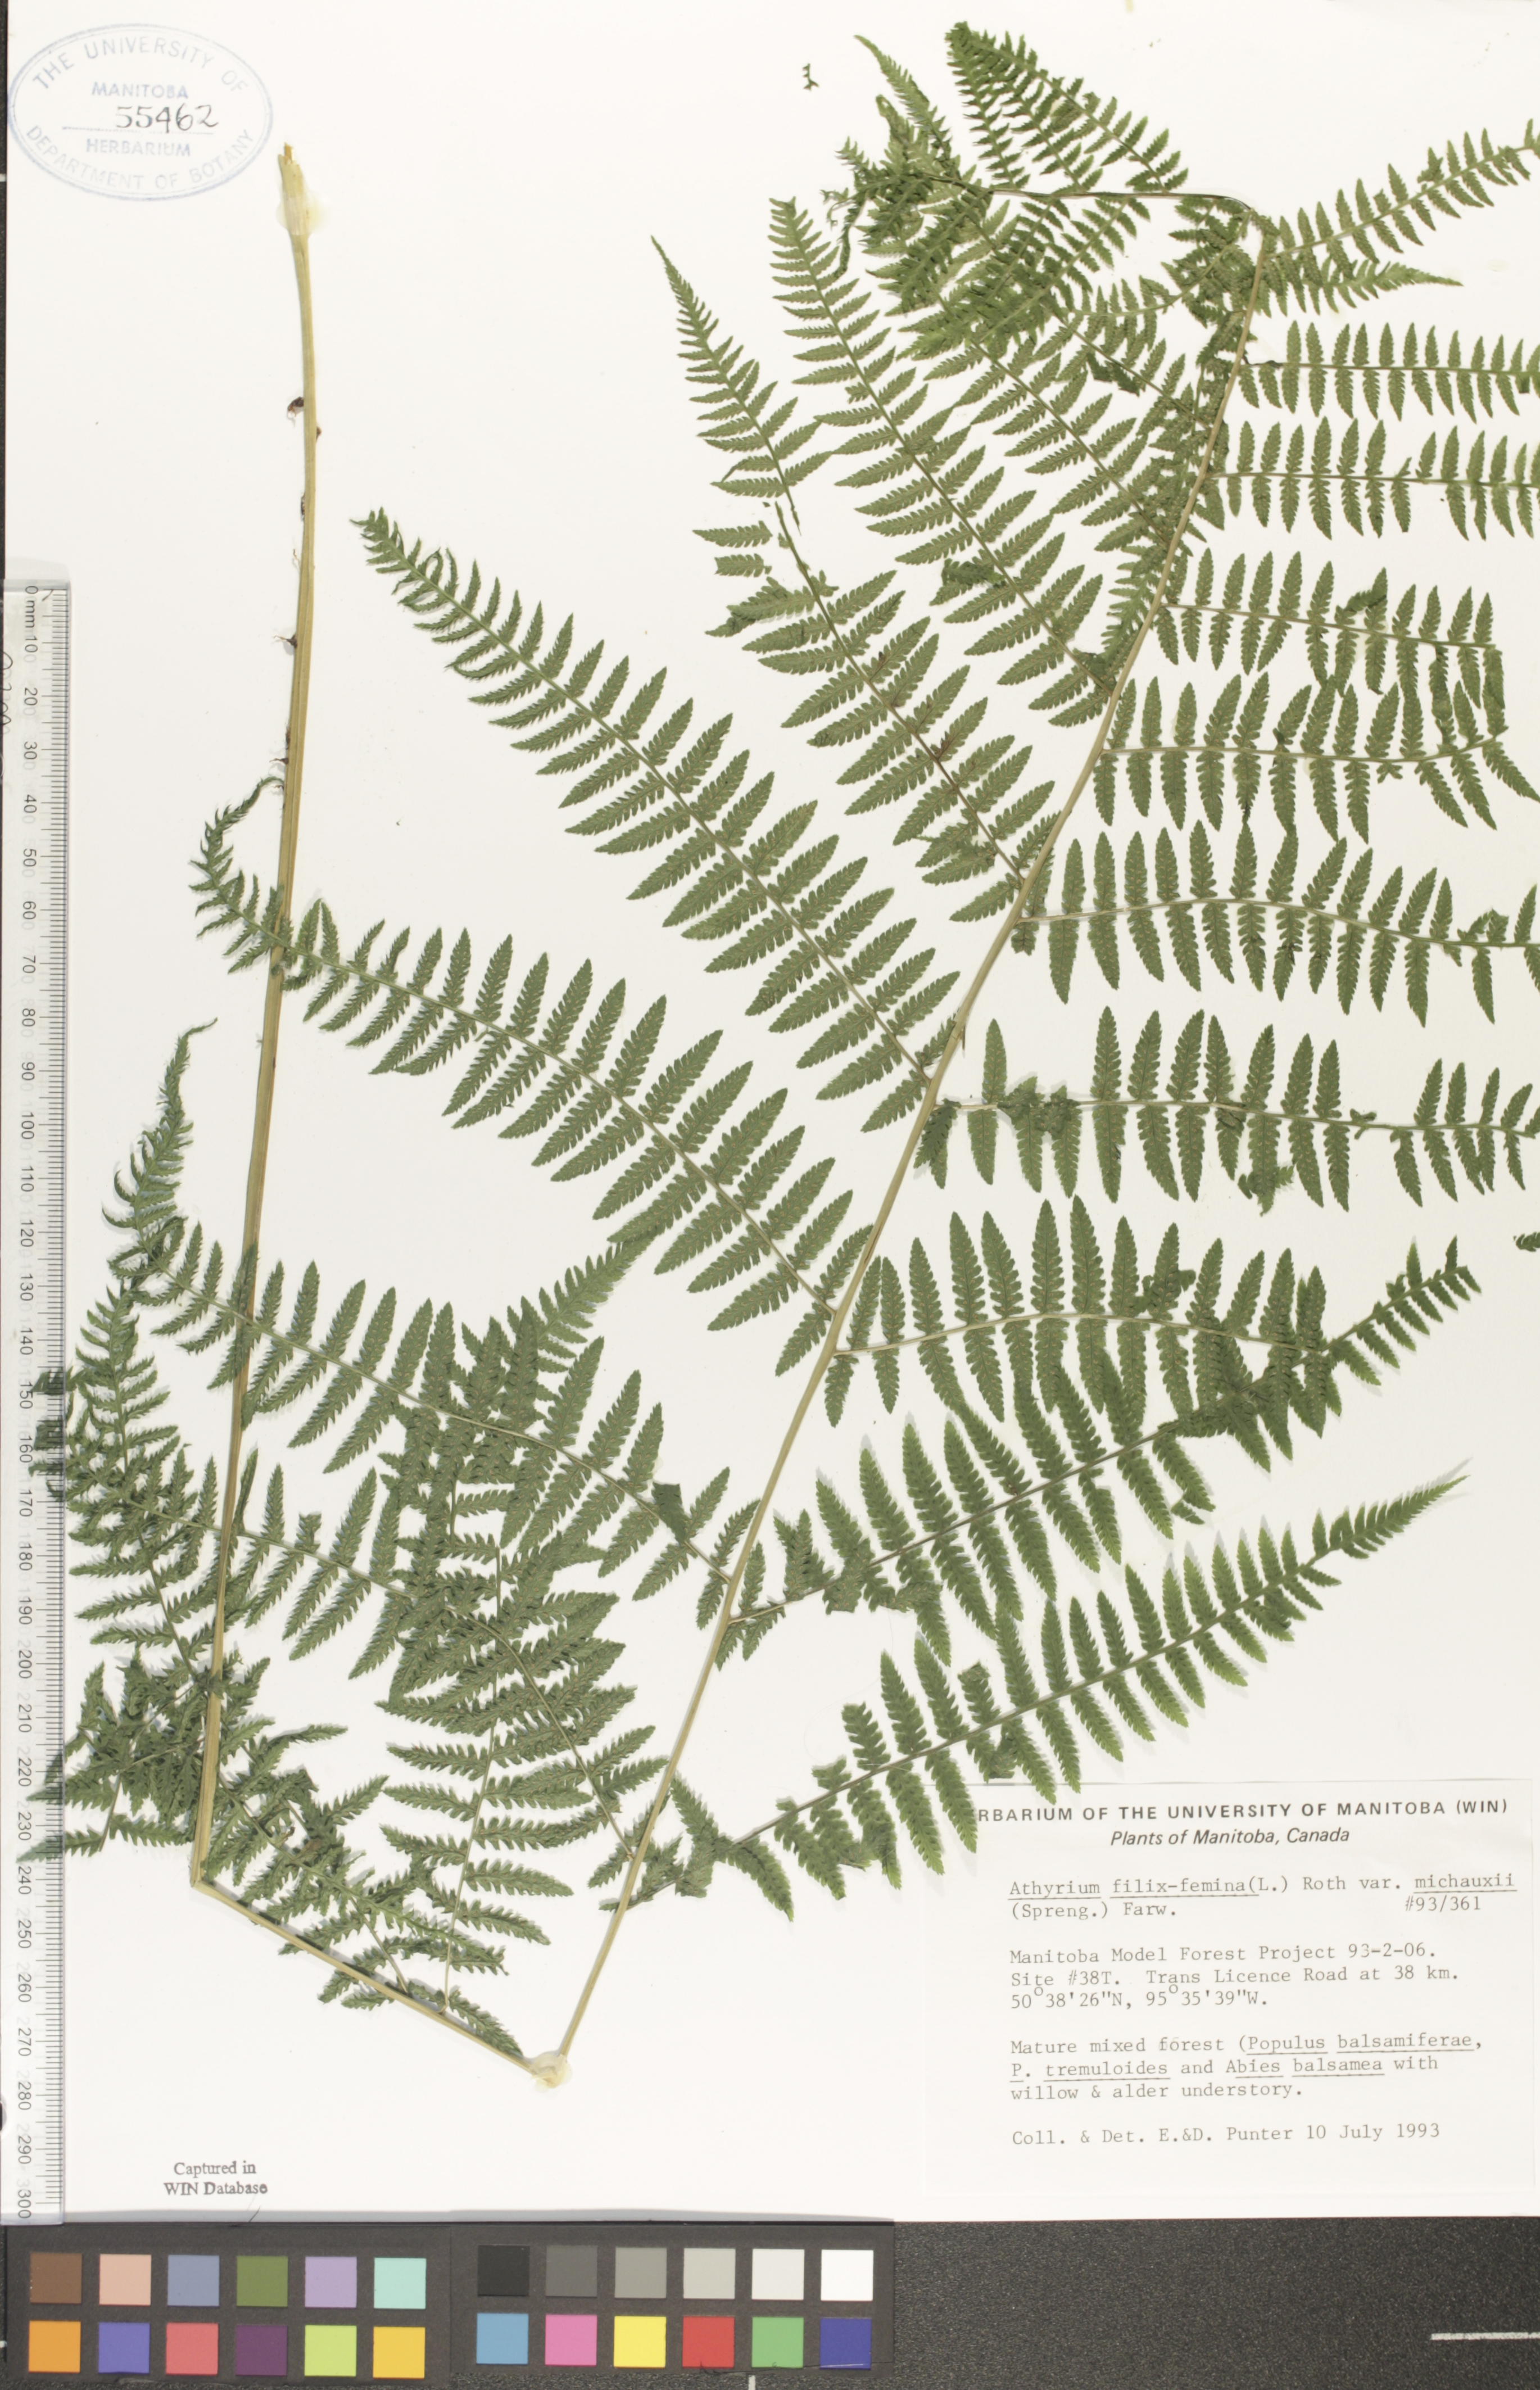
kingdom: Plantae
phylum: Tracheophyta
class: Polypodiopsida
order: Polypodiales
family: Athyriaceae
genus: Athyrium
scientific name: Athyrium angustum
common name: Northern lady fern
